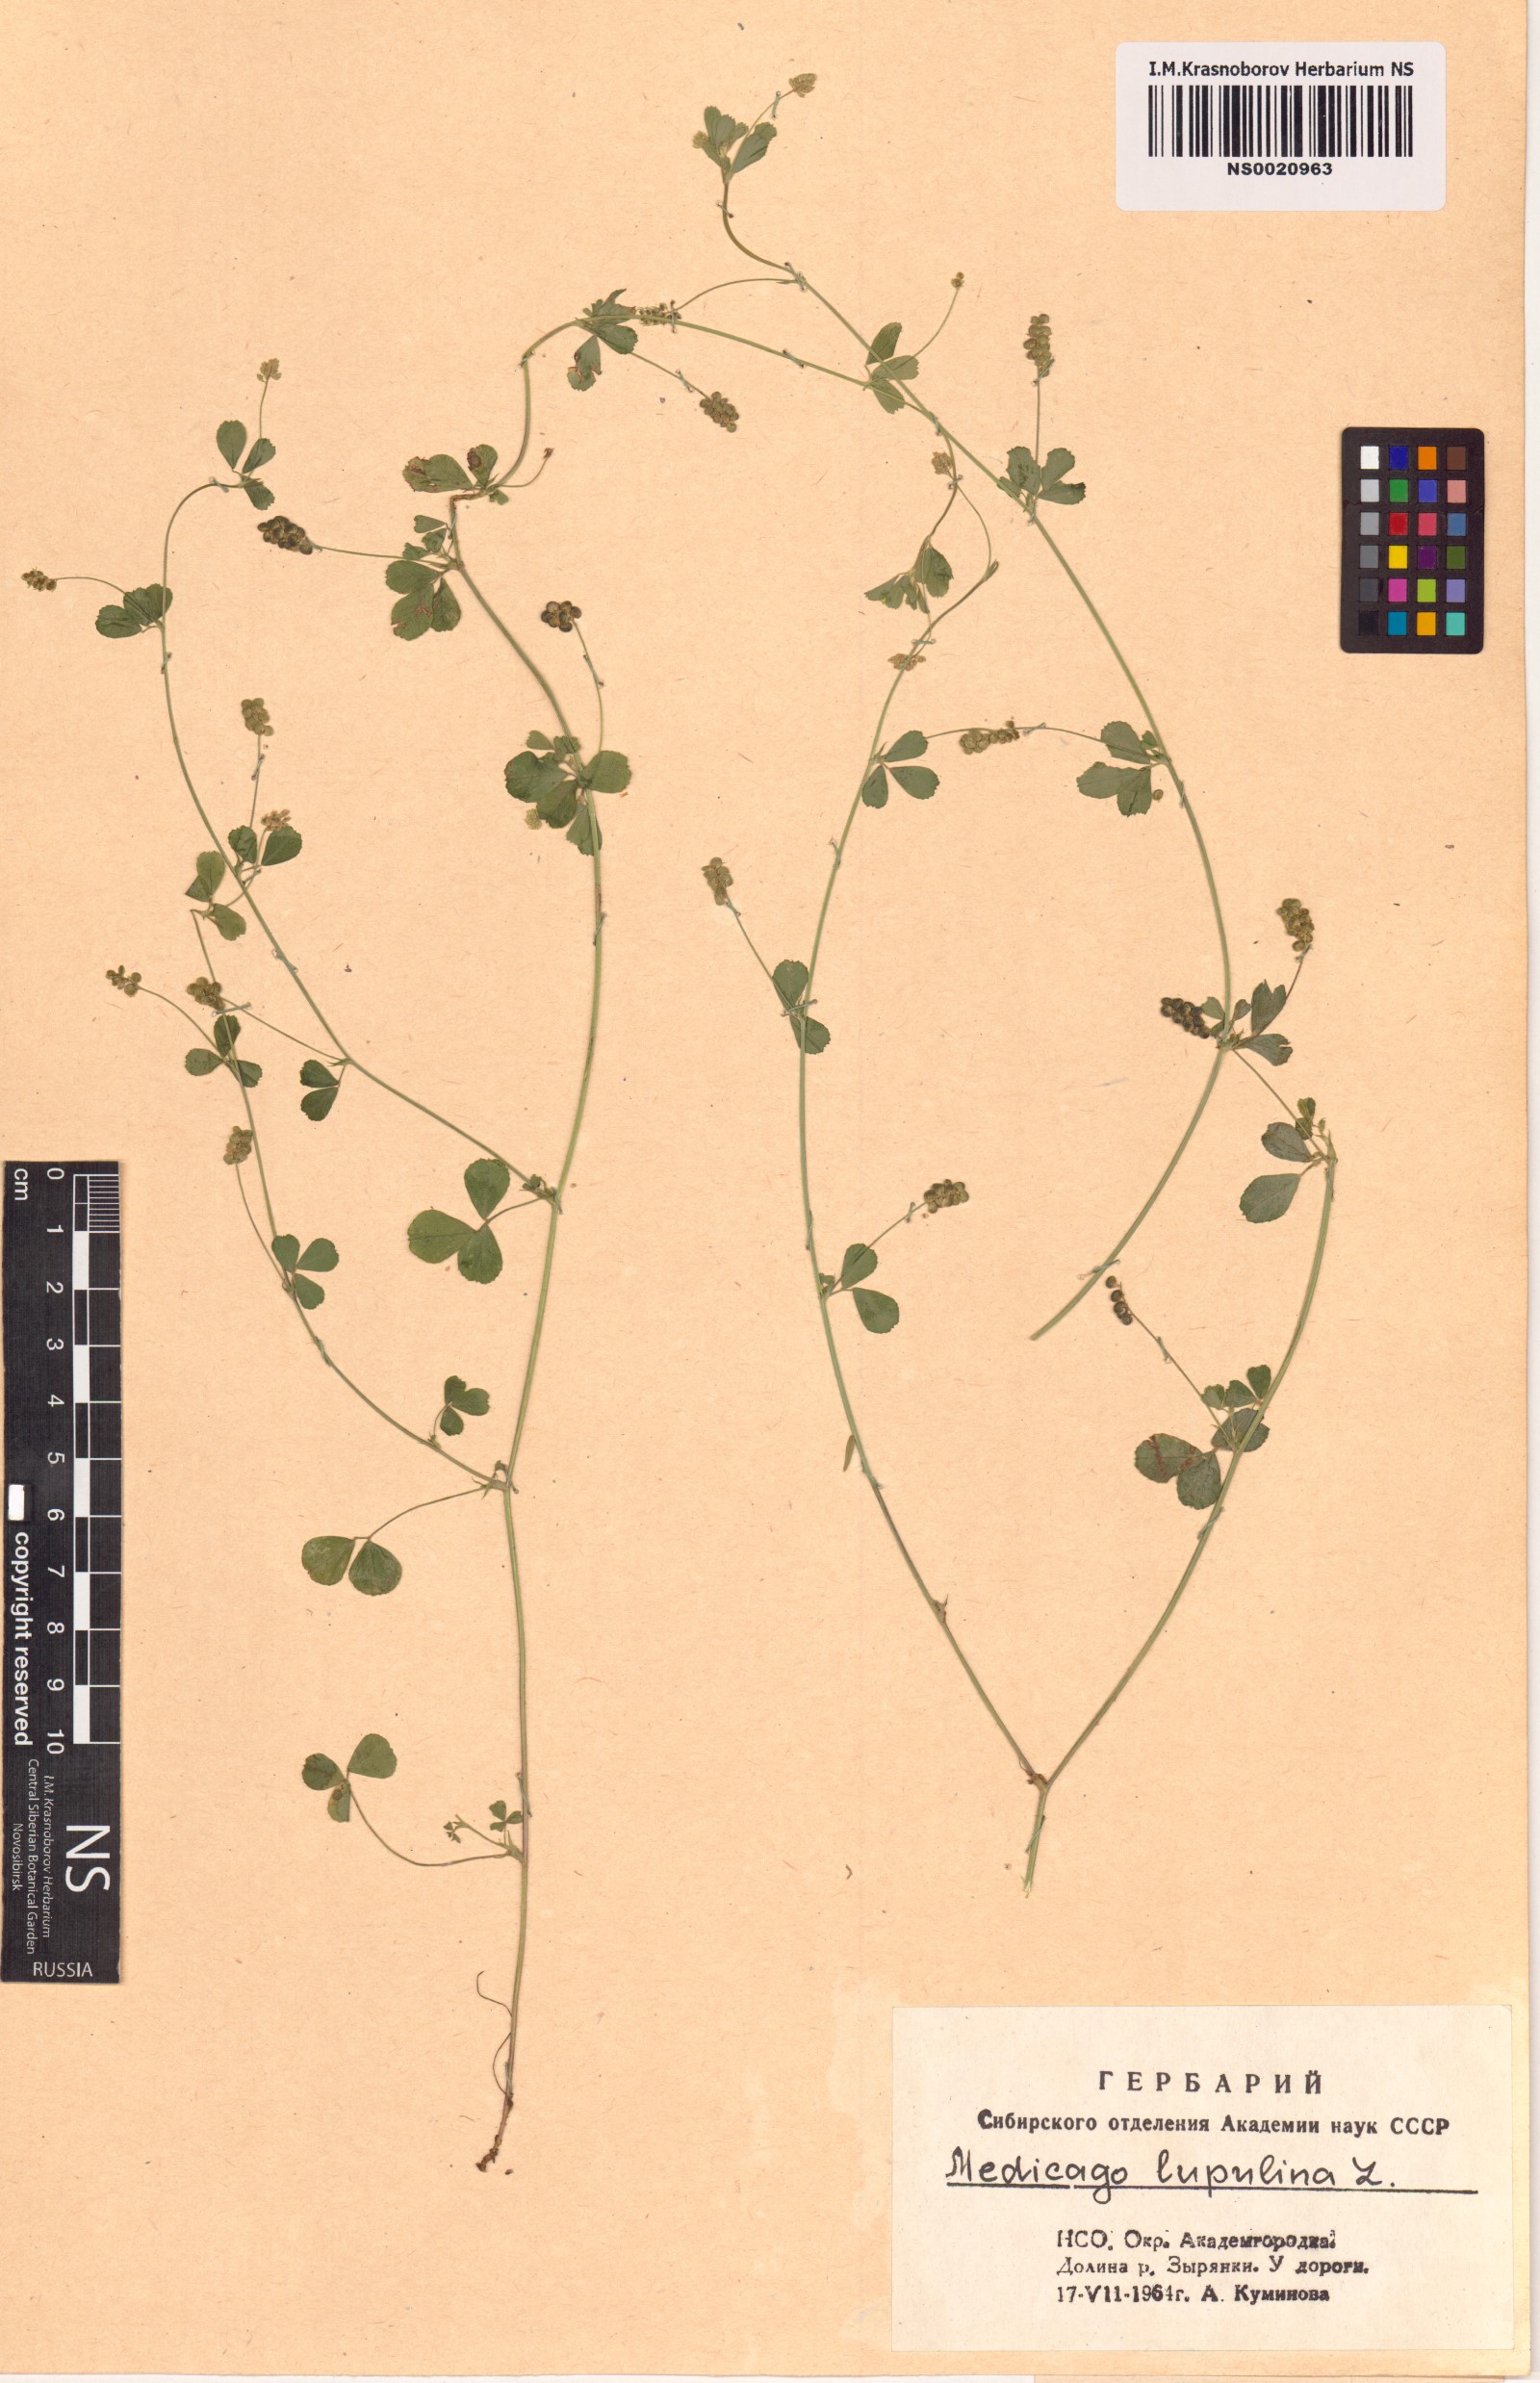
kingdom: Plantae
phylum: Tracheophyta
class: Magnoliopsida
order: Fabales
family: Fabaceae
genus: Medicago
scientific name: Medicago lupulina
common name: Black medick
